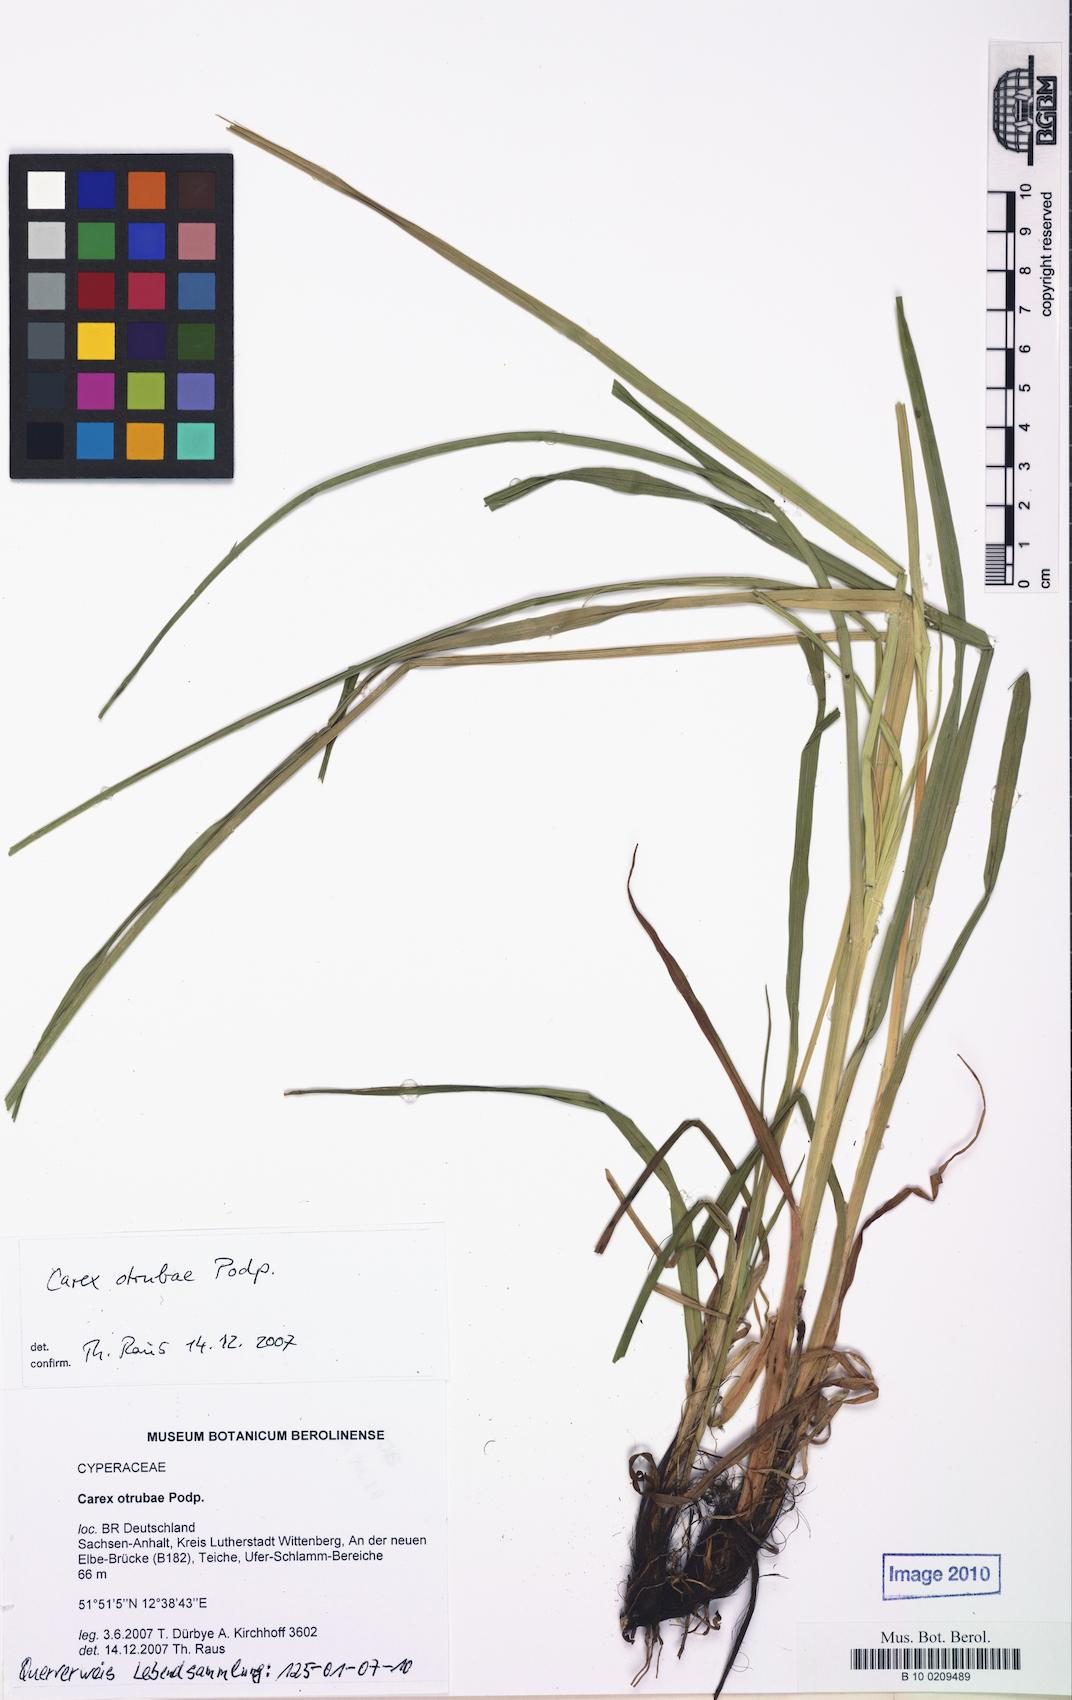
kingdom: Plantae
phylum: Tracheophyta
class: Liliopsida
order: Poales
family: Cyperaceae
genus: Carex
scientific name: Carex otrubae
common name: False fox-sedge
